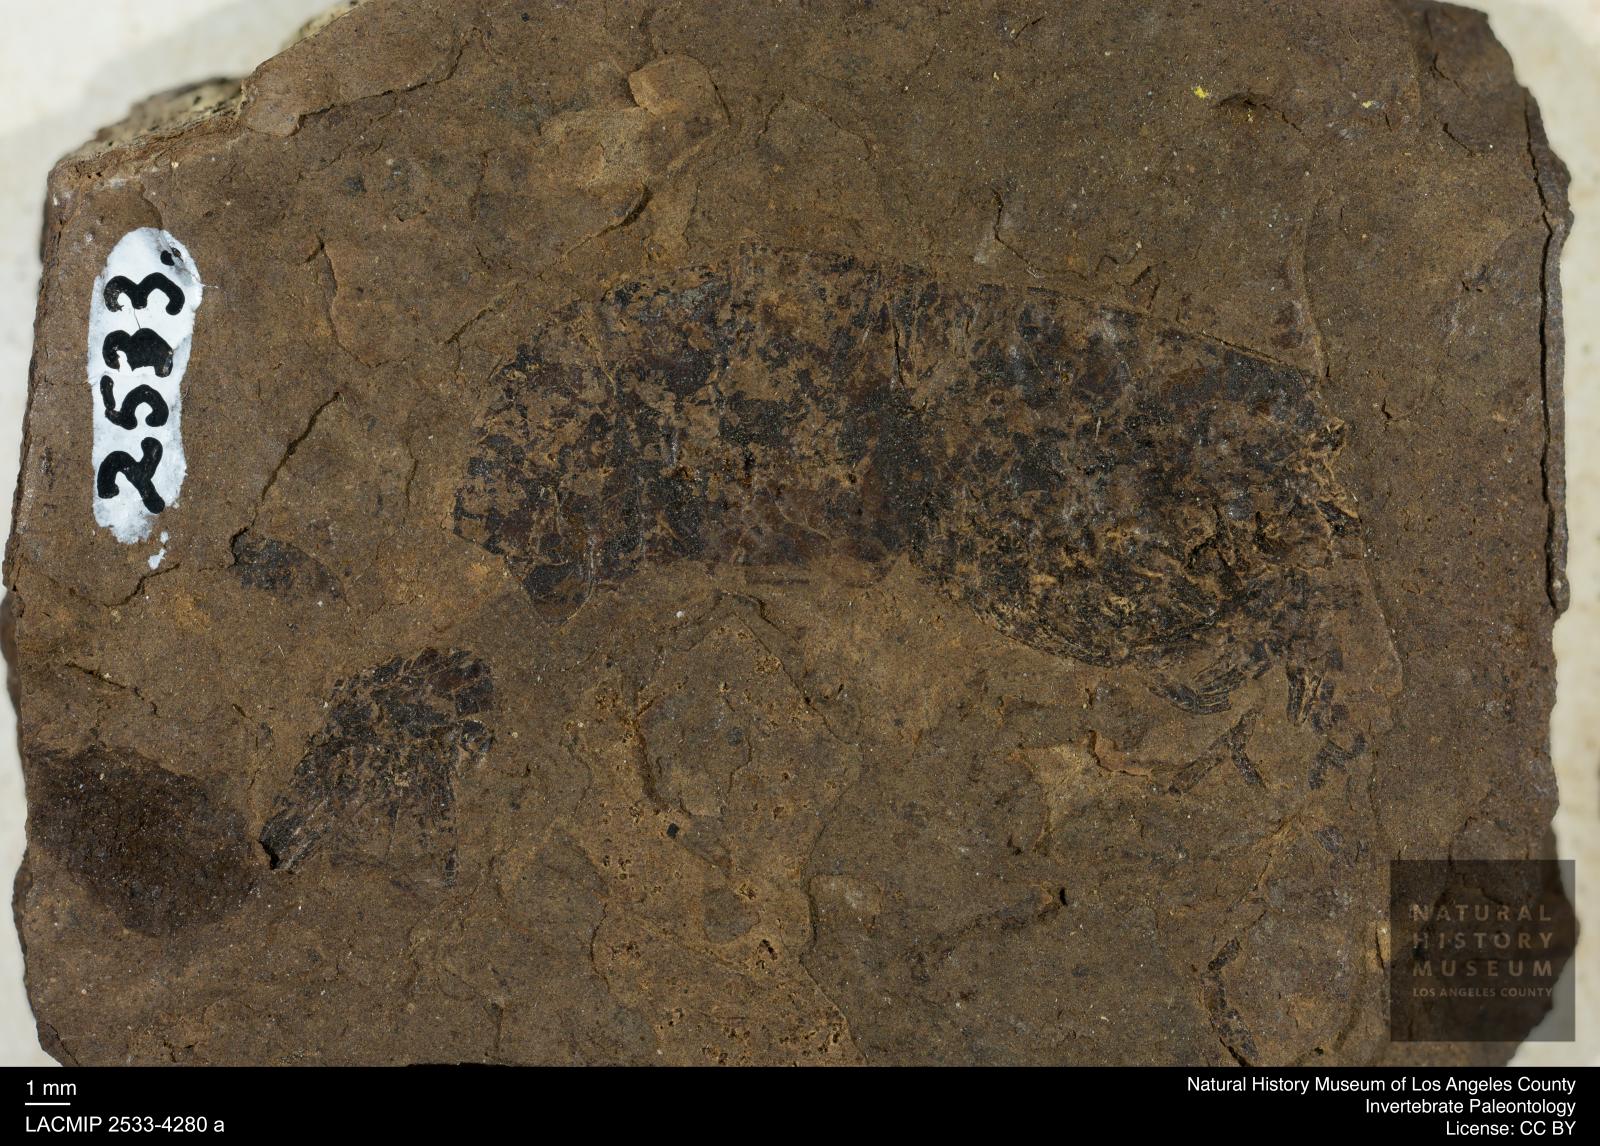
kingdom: Animalia
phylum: Arthropoda
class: Malacostraca
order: Decapoda
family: Palaemonidae
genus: Micropsalis
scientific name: Micropsalis papyracea
